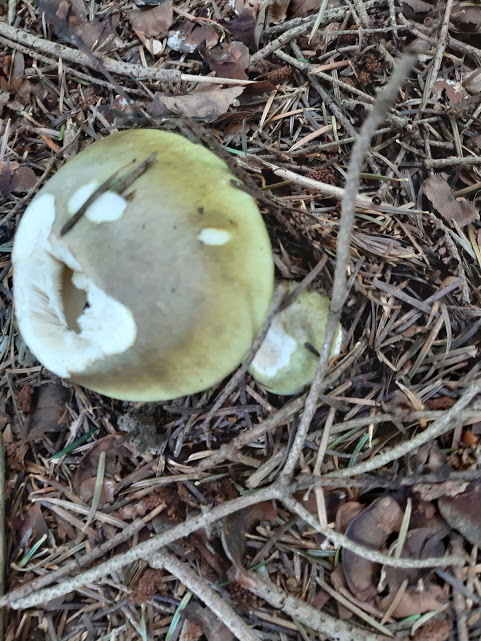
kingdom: Fungi
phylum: Basidiomycota
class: Agaricomycetes
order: Agaricales
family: Amanitaceae
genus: Amanita
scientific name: Amanita phalloides
